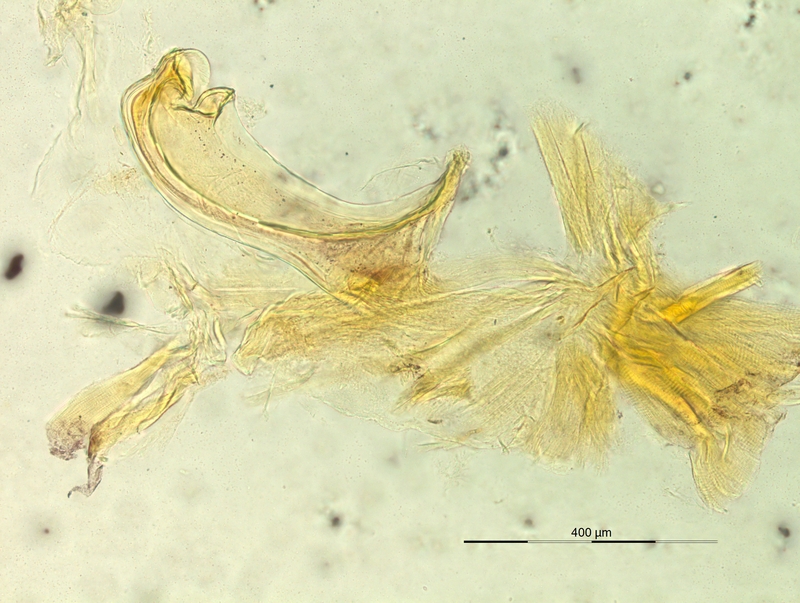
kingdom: Animalia
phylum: Arthropoda
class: Diplopoda
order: Chordeumatida
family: Craspedosomatidae
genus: Pyrgocyphosoma
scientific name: Pyrgocyphosoma fonticuli
